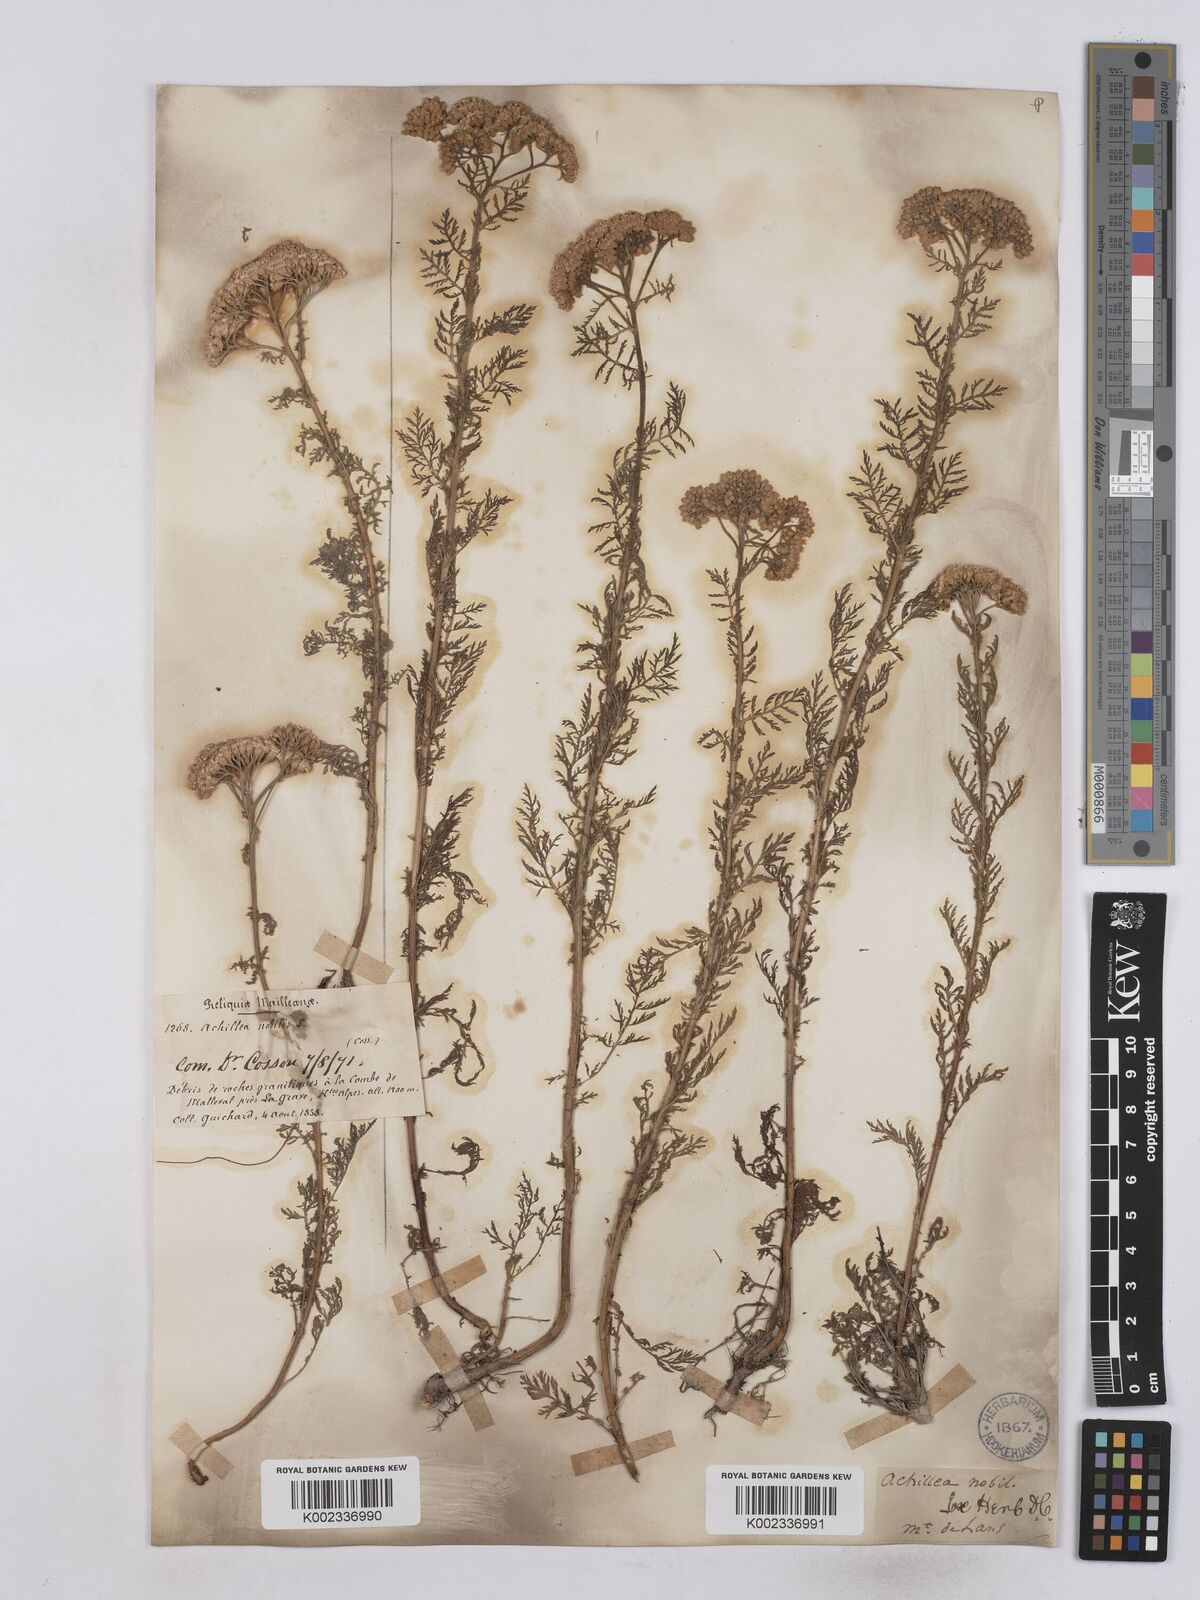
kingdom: Plantae
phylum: Tracheophyta
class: Magnoliopsida
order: Asterales
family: Asteraceae
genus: Achillea
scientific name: Achillea nobilis
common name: Noble yarrow
